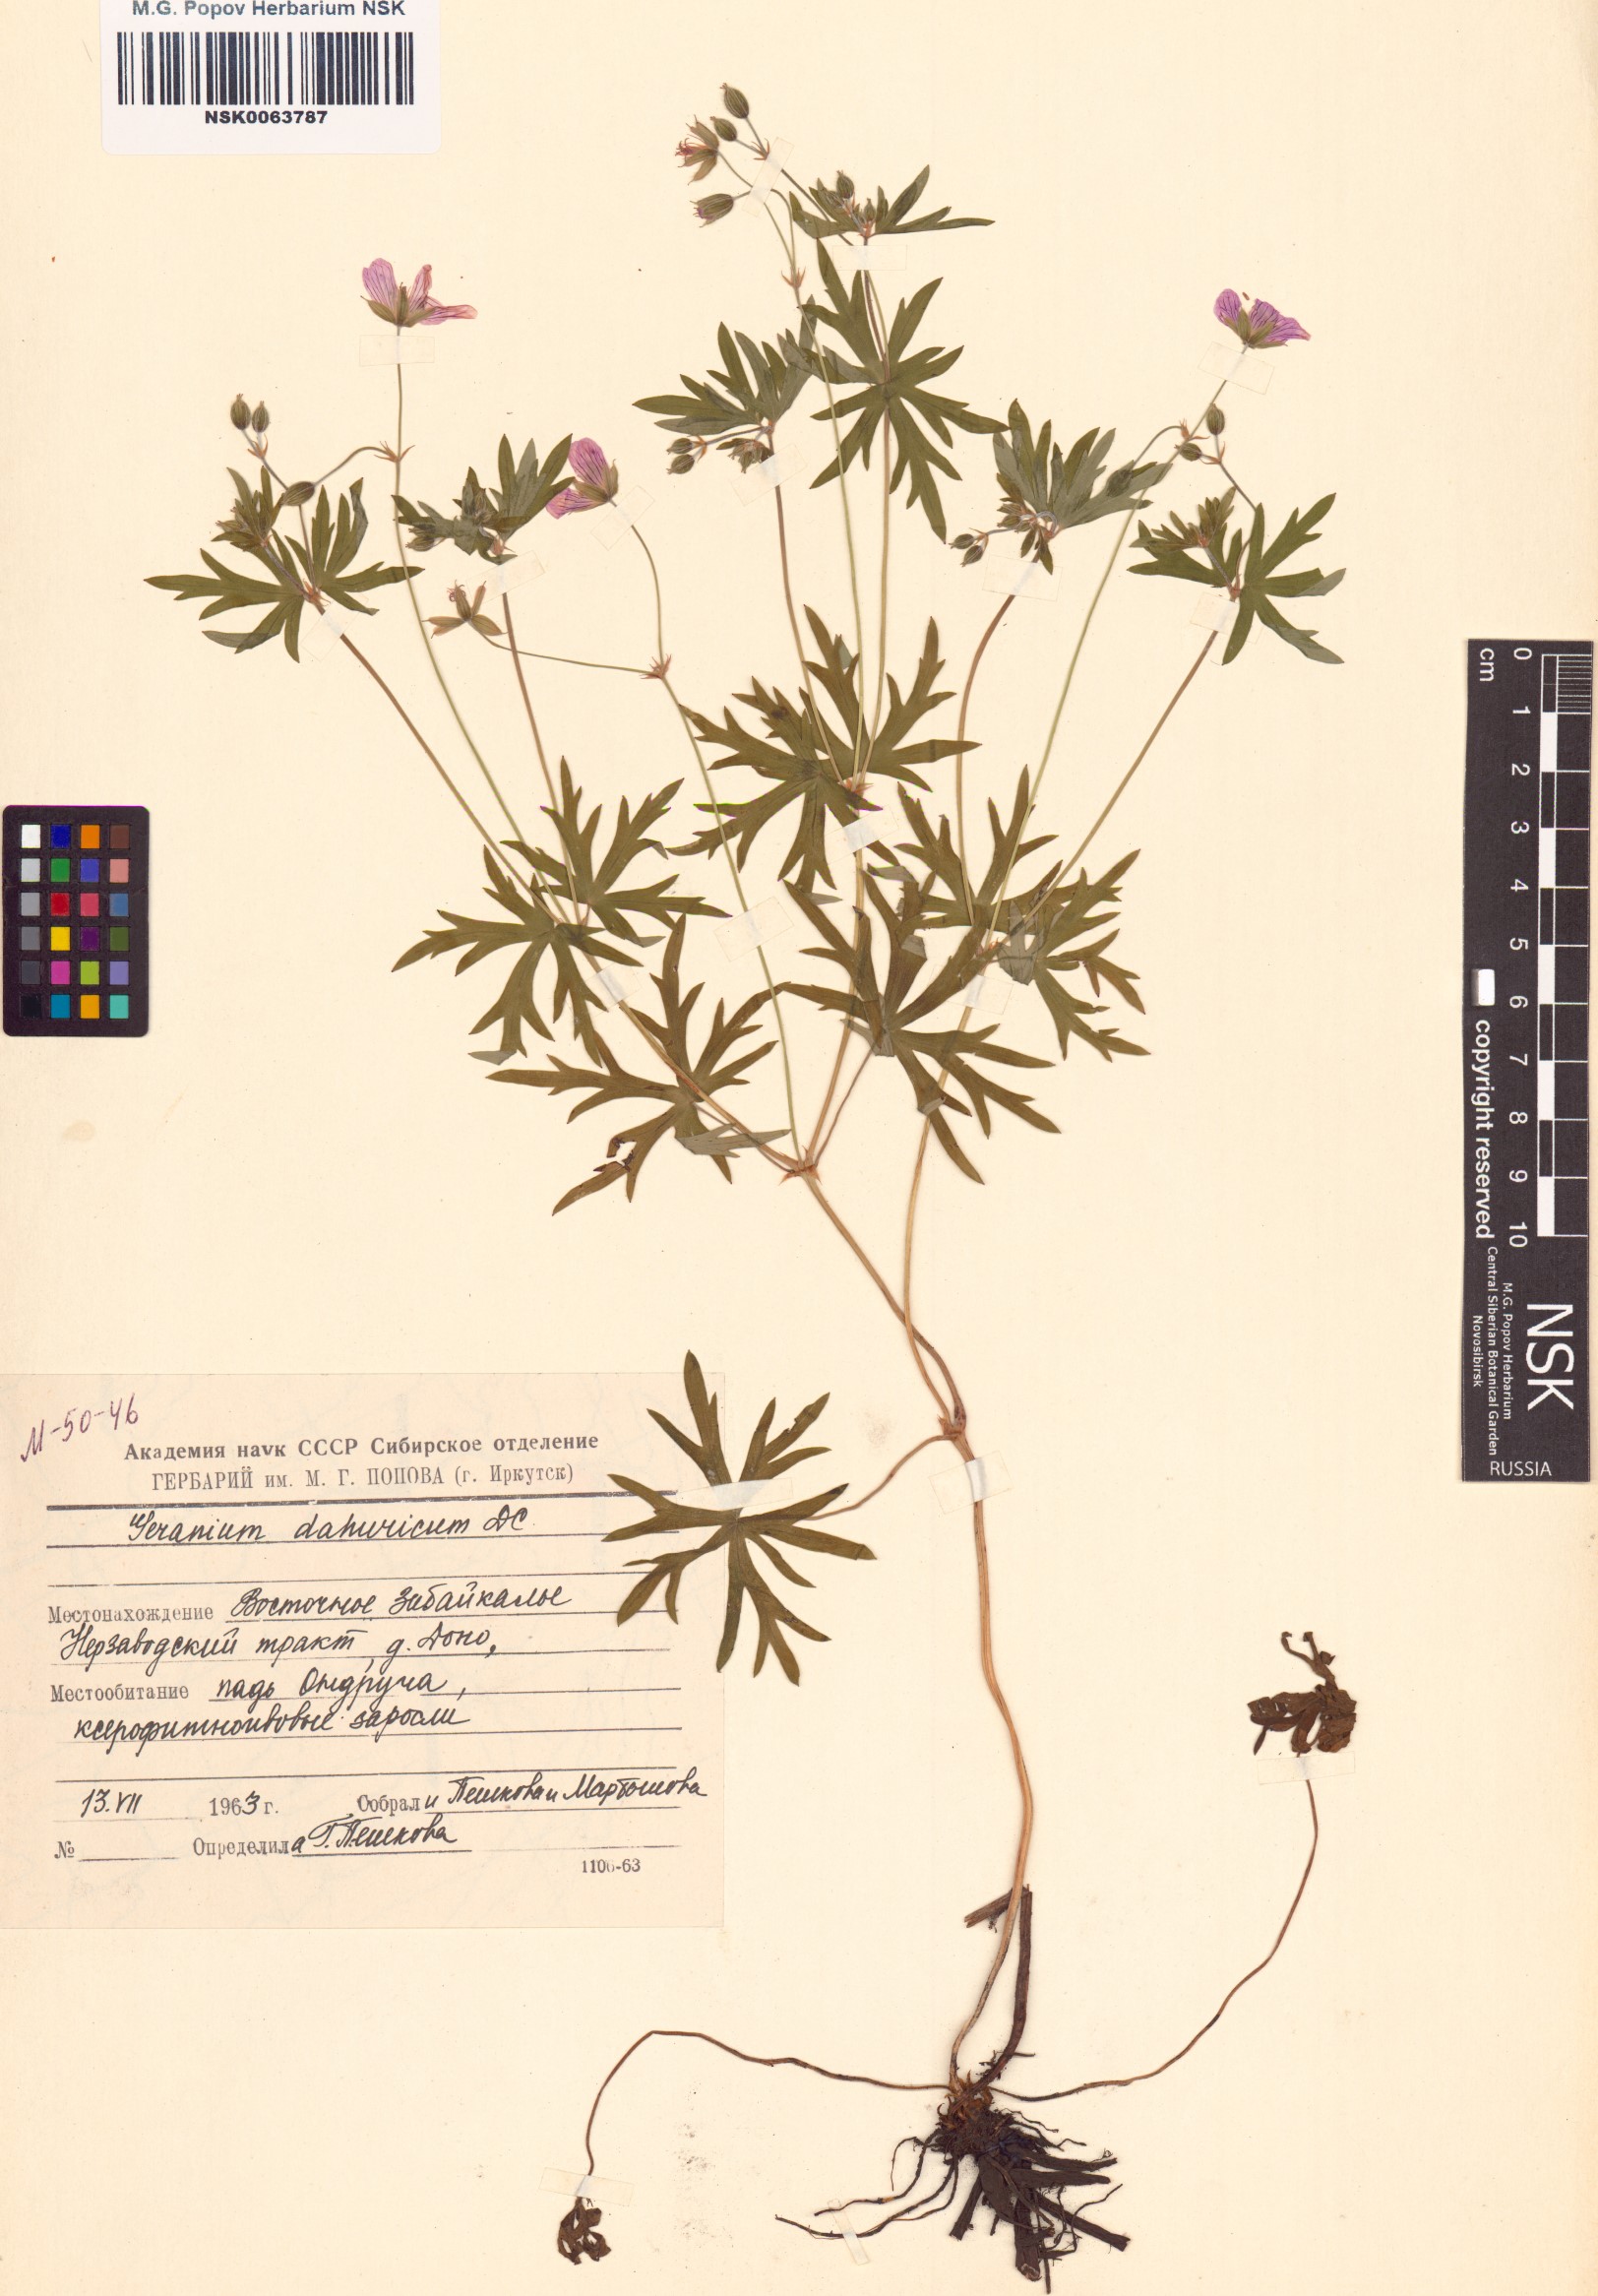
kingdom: Plantae
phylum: Tracheophyta
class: Magnoliopsida
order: Geraniales
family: Geraniaceae
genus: Geranium
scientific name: Geranium dahuricum
